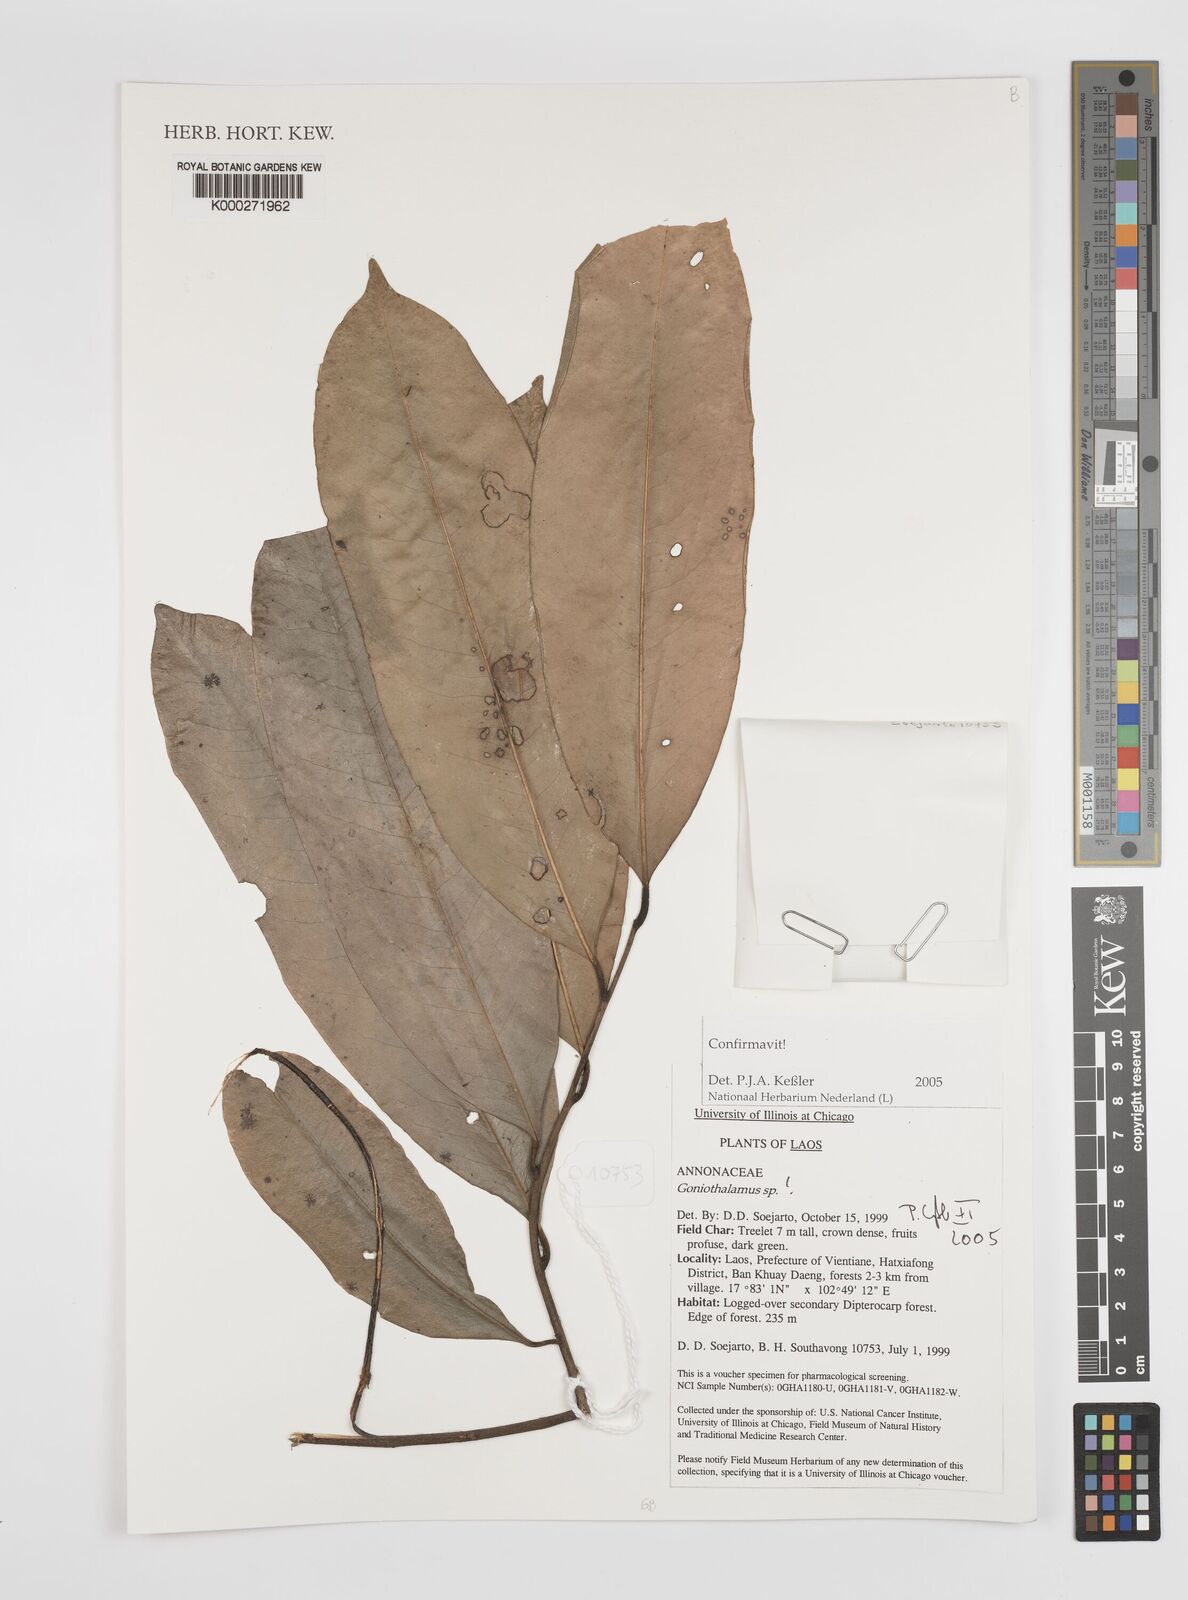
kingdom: Plantae
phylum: Tracheophyta
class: Magnoliopsida
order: Magnoliales
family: Annonaceae
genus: Goniothalamus
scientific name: Goniothalamus
